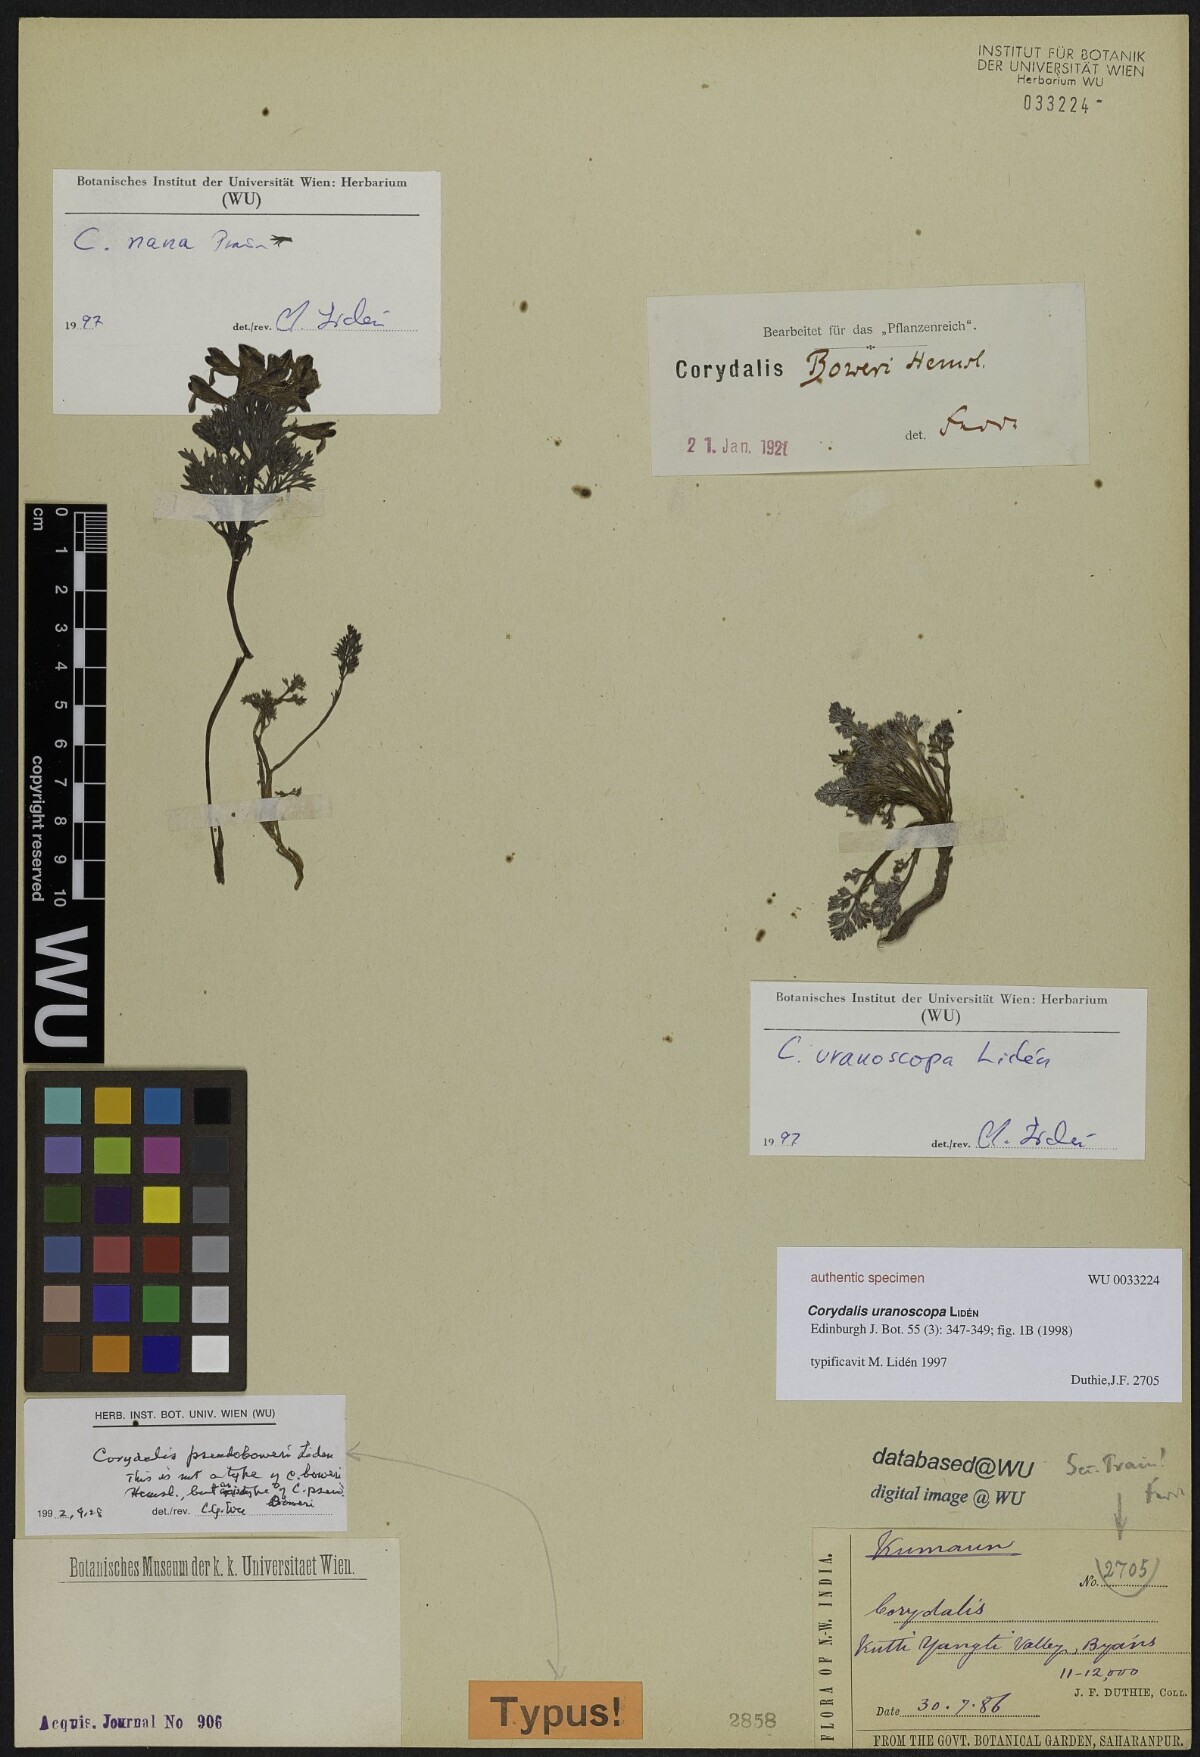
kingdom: Plantae
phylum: Tracheophyta
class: Magnoliopsida
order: Ranunculales
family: Papaveraceae
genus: Corydalis
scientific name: Corydalis uranoscopa
